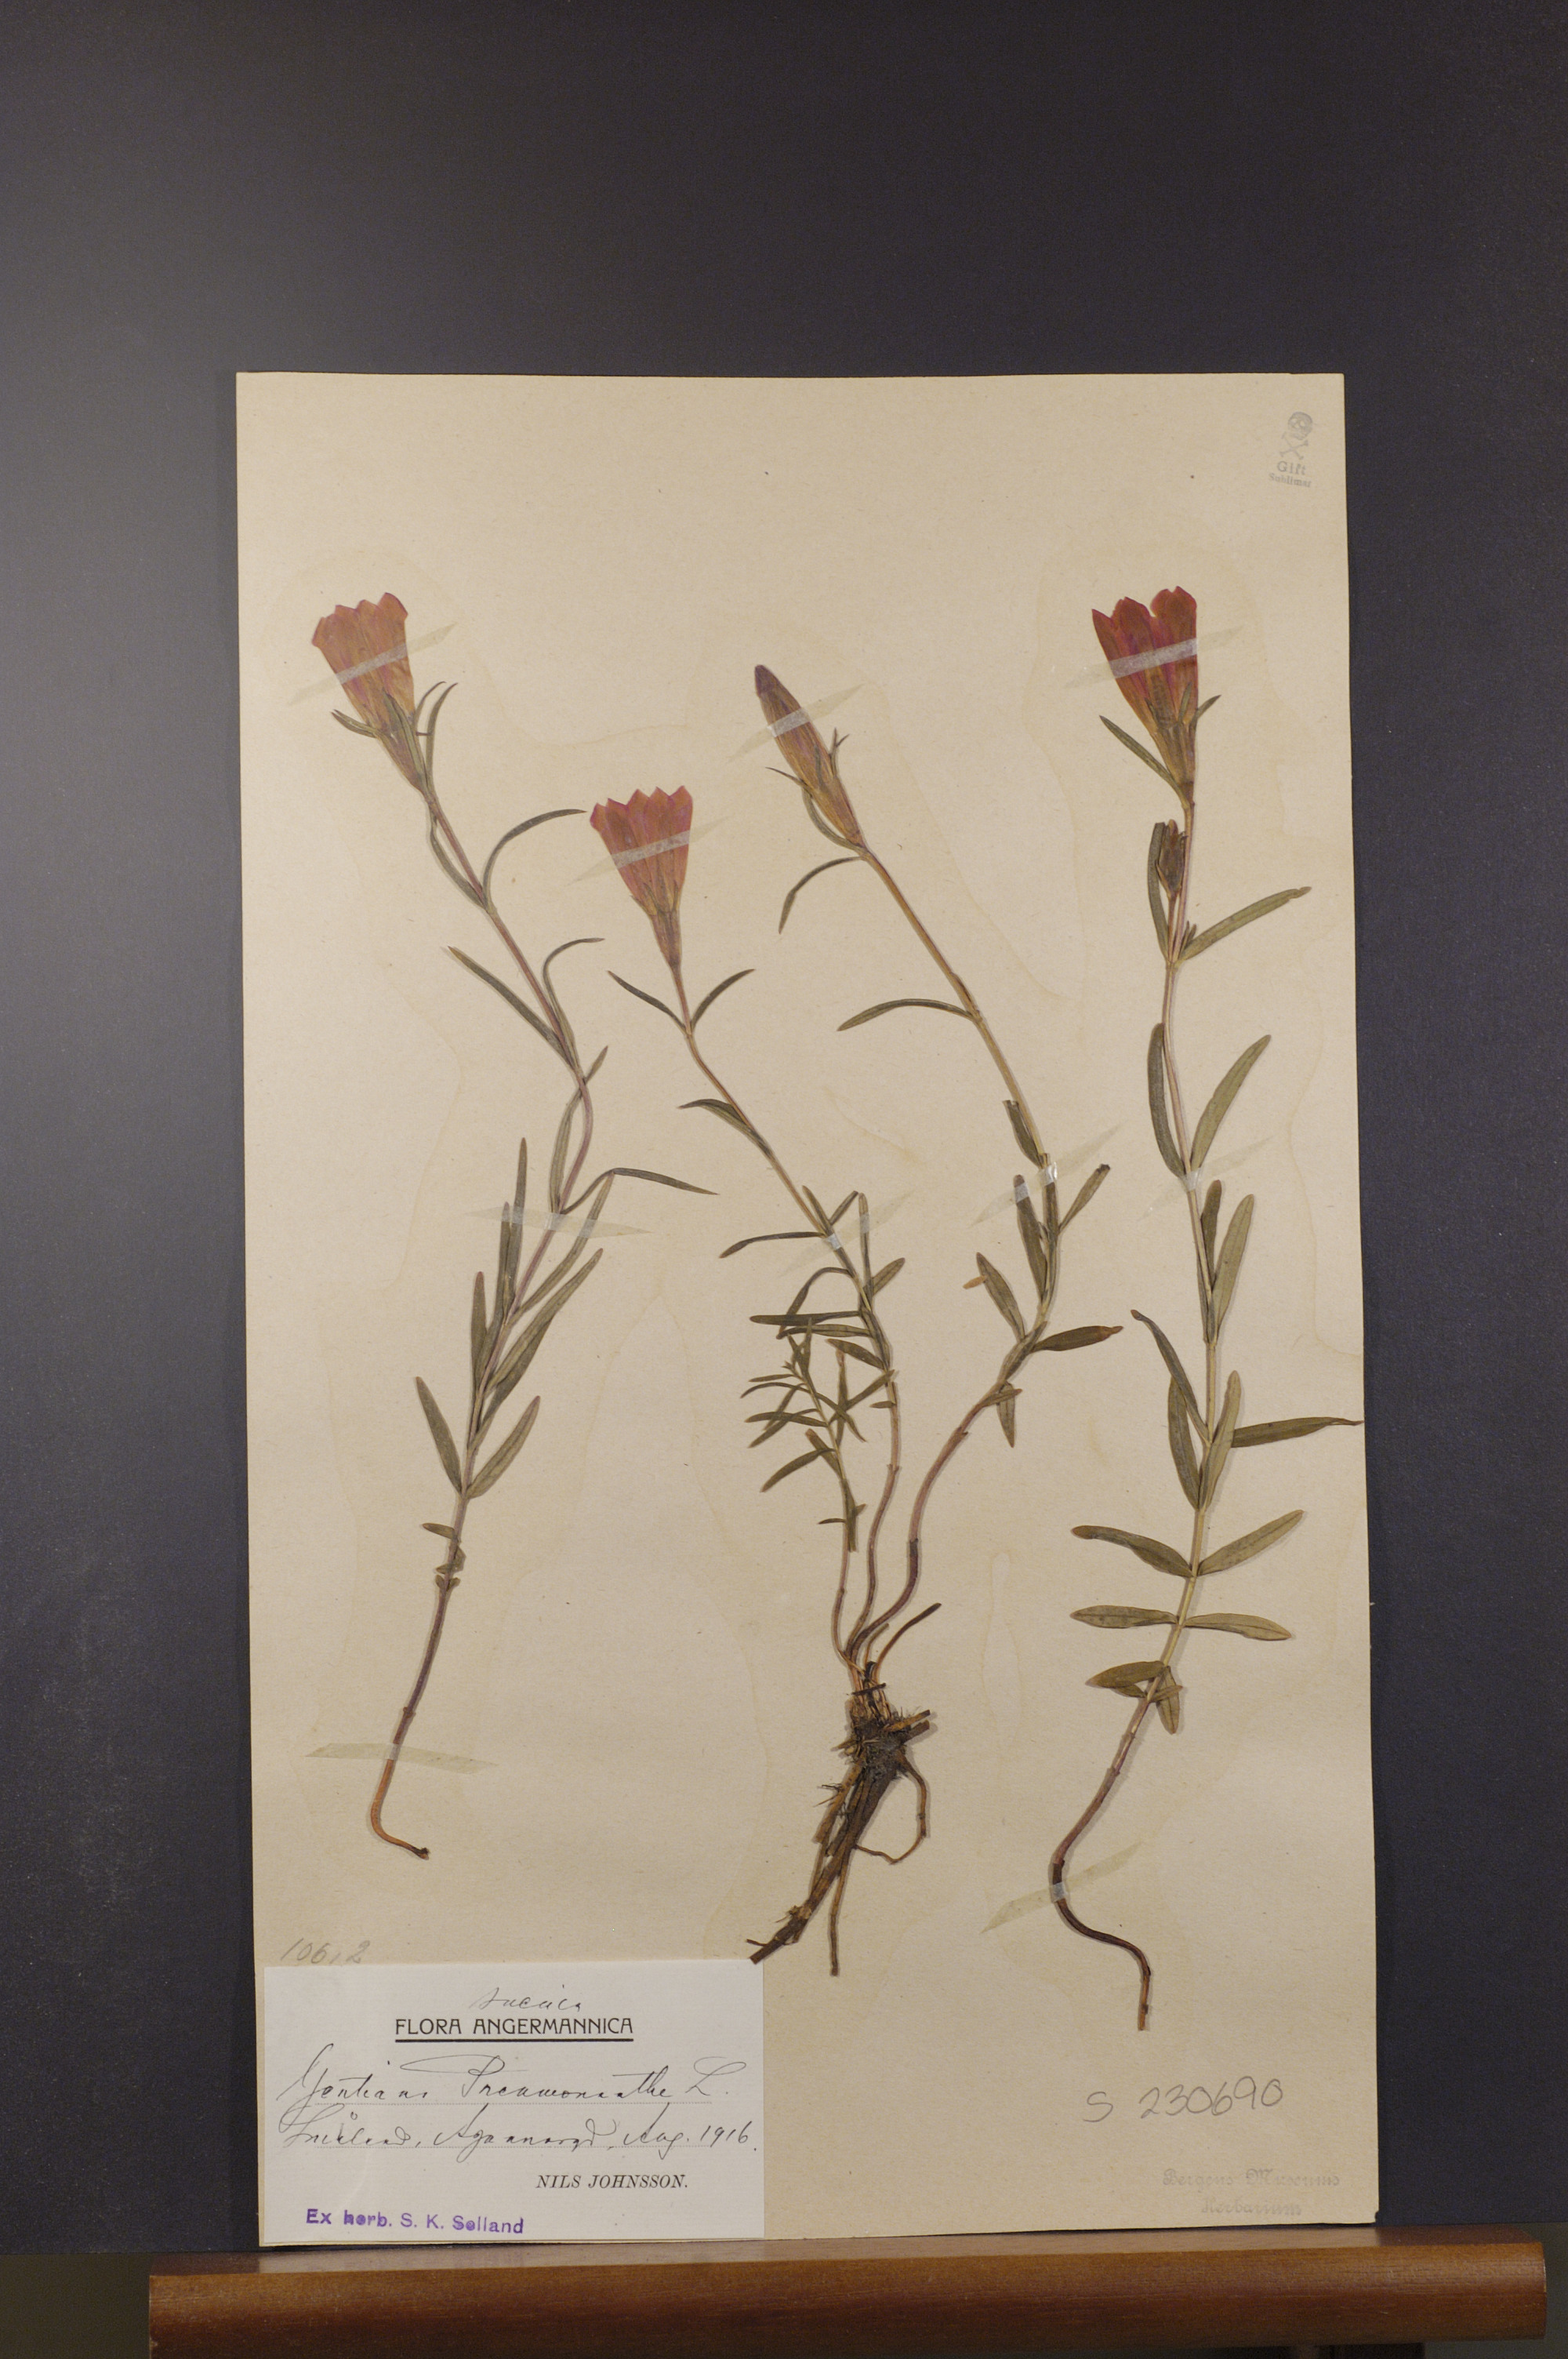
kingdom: Plantae
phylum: Tracheophyta
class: Magnoliopsida
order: Gentianales
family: Gentianaceae
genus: Gentiana
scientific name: Gentiana pneumonanthe
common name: Marsh gentian
